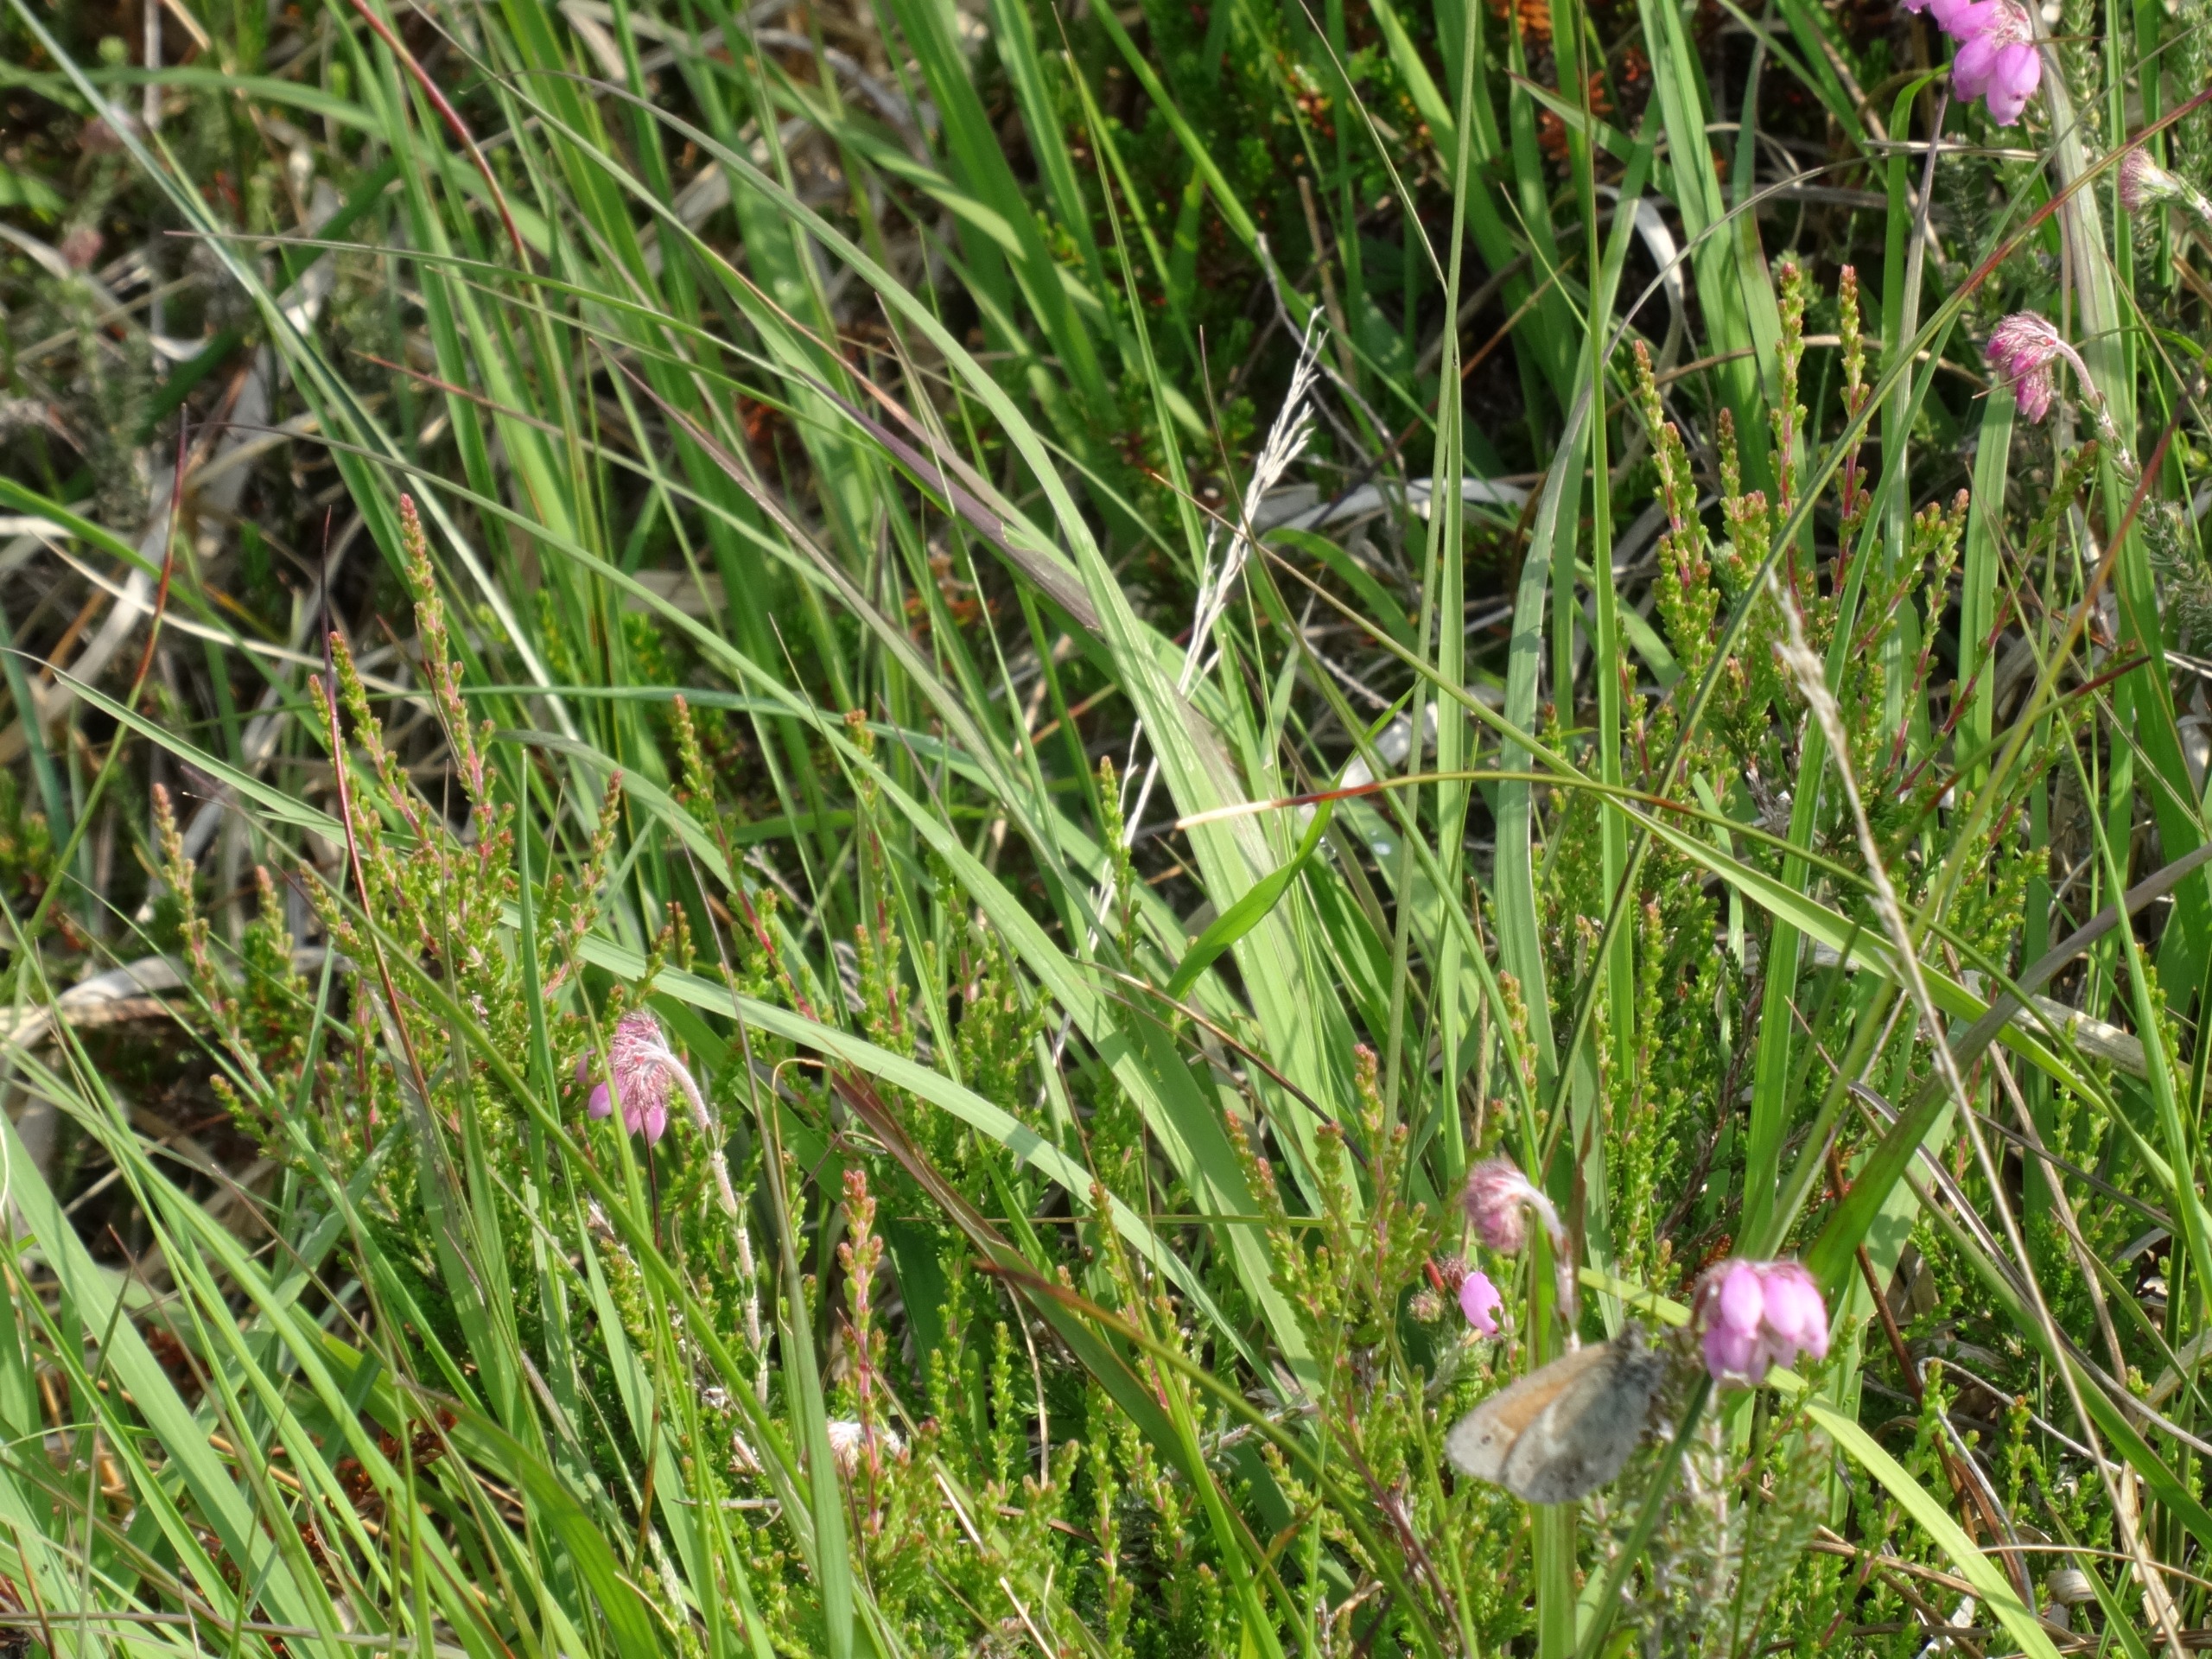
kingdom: Animalia
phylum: Arthropoda
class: Insecta
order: Lepidoptera
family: Nymphalidae
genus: Coenonympha
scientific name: Coenonympha tullia
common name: Moserandøje
